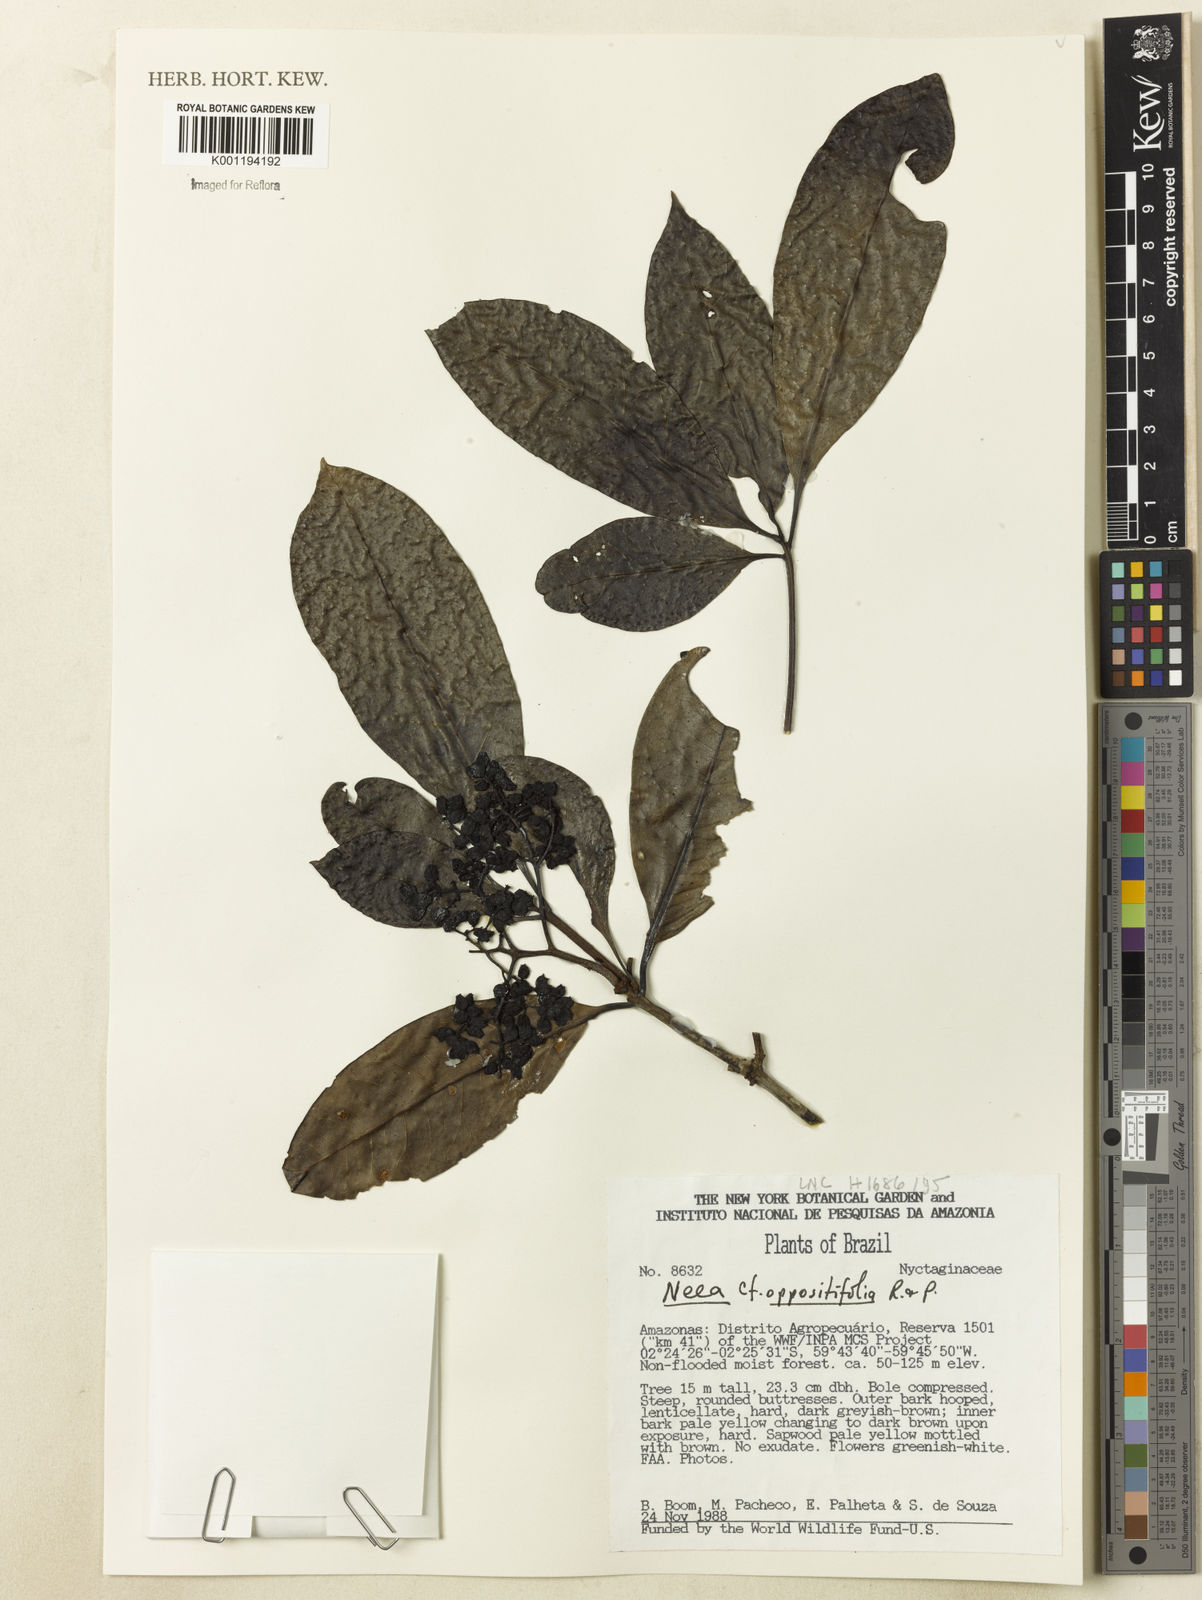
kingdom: Plantae
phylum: Tracheophyta
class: Magnoliopsida
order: Caryophyllales
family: Nyctaginaceae
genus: Neea
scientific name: Neea oppositifolia
